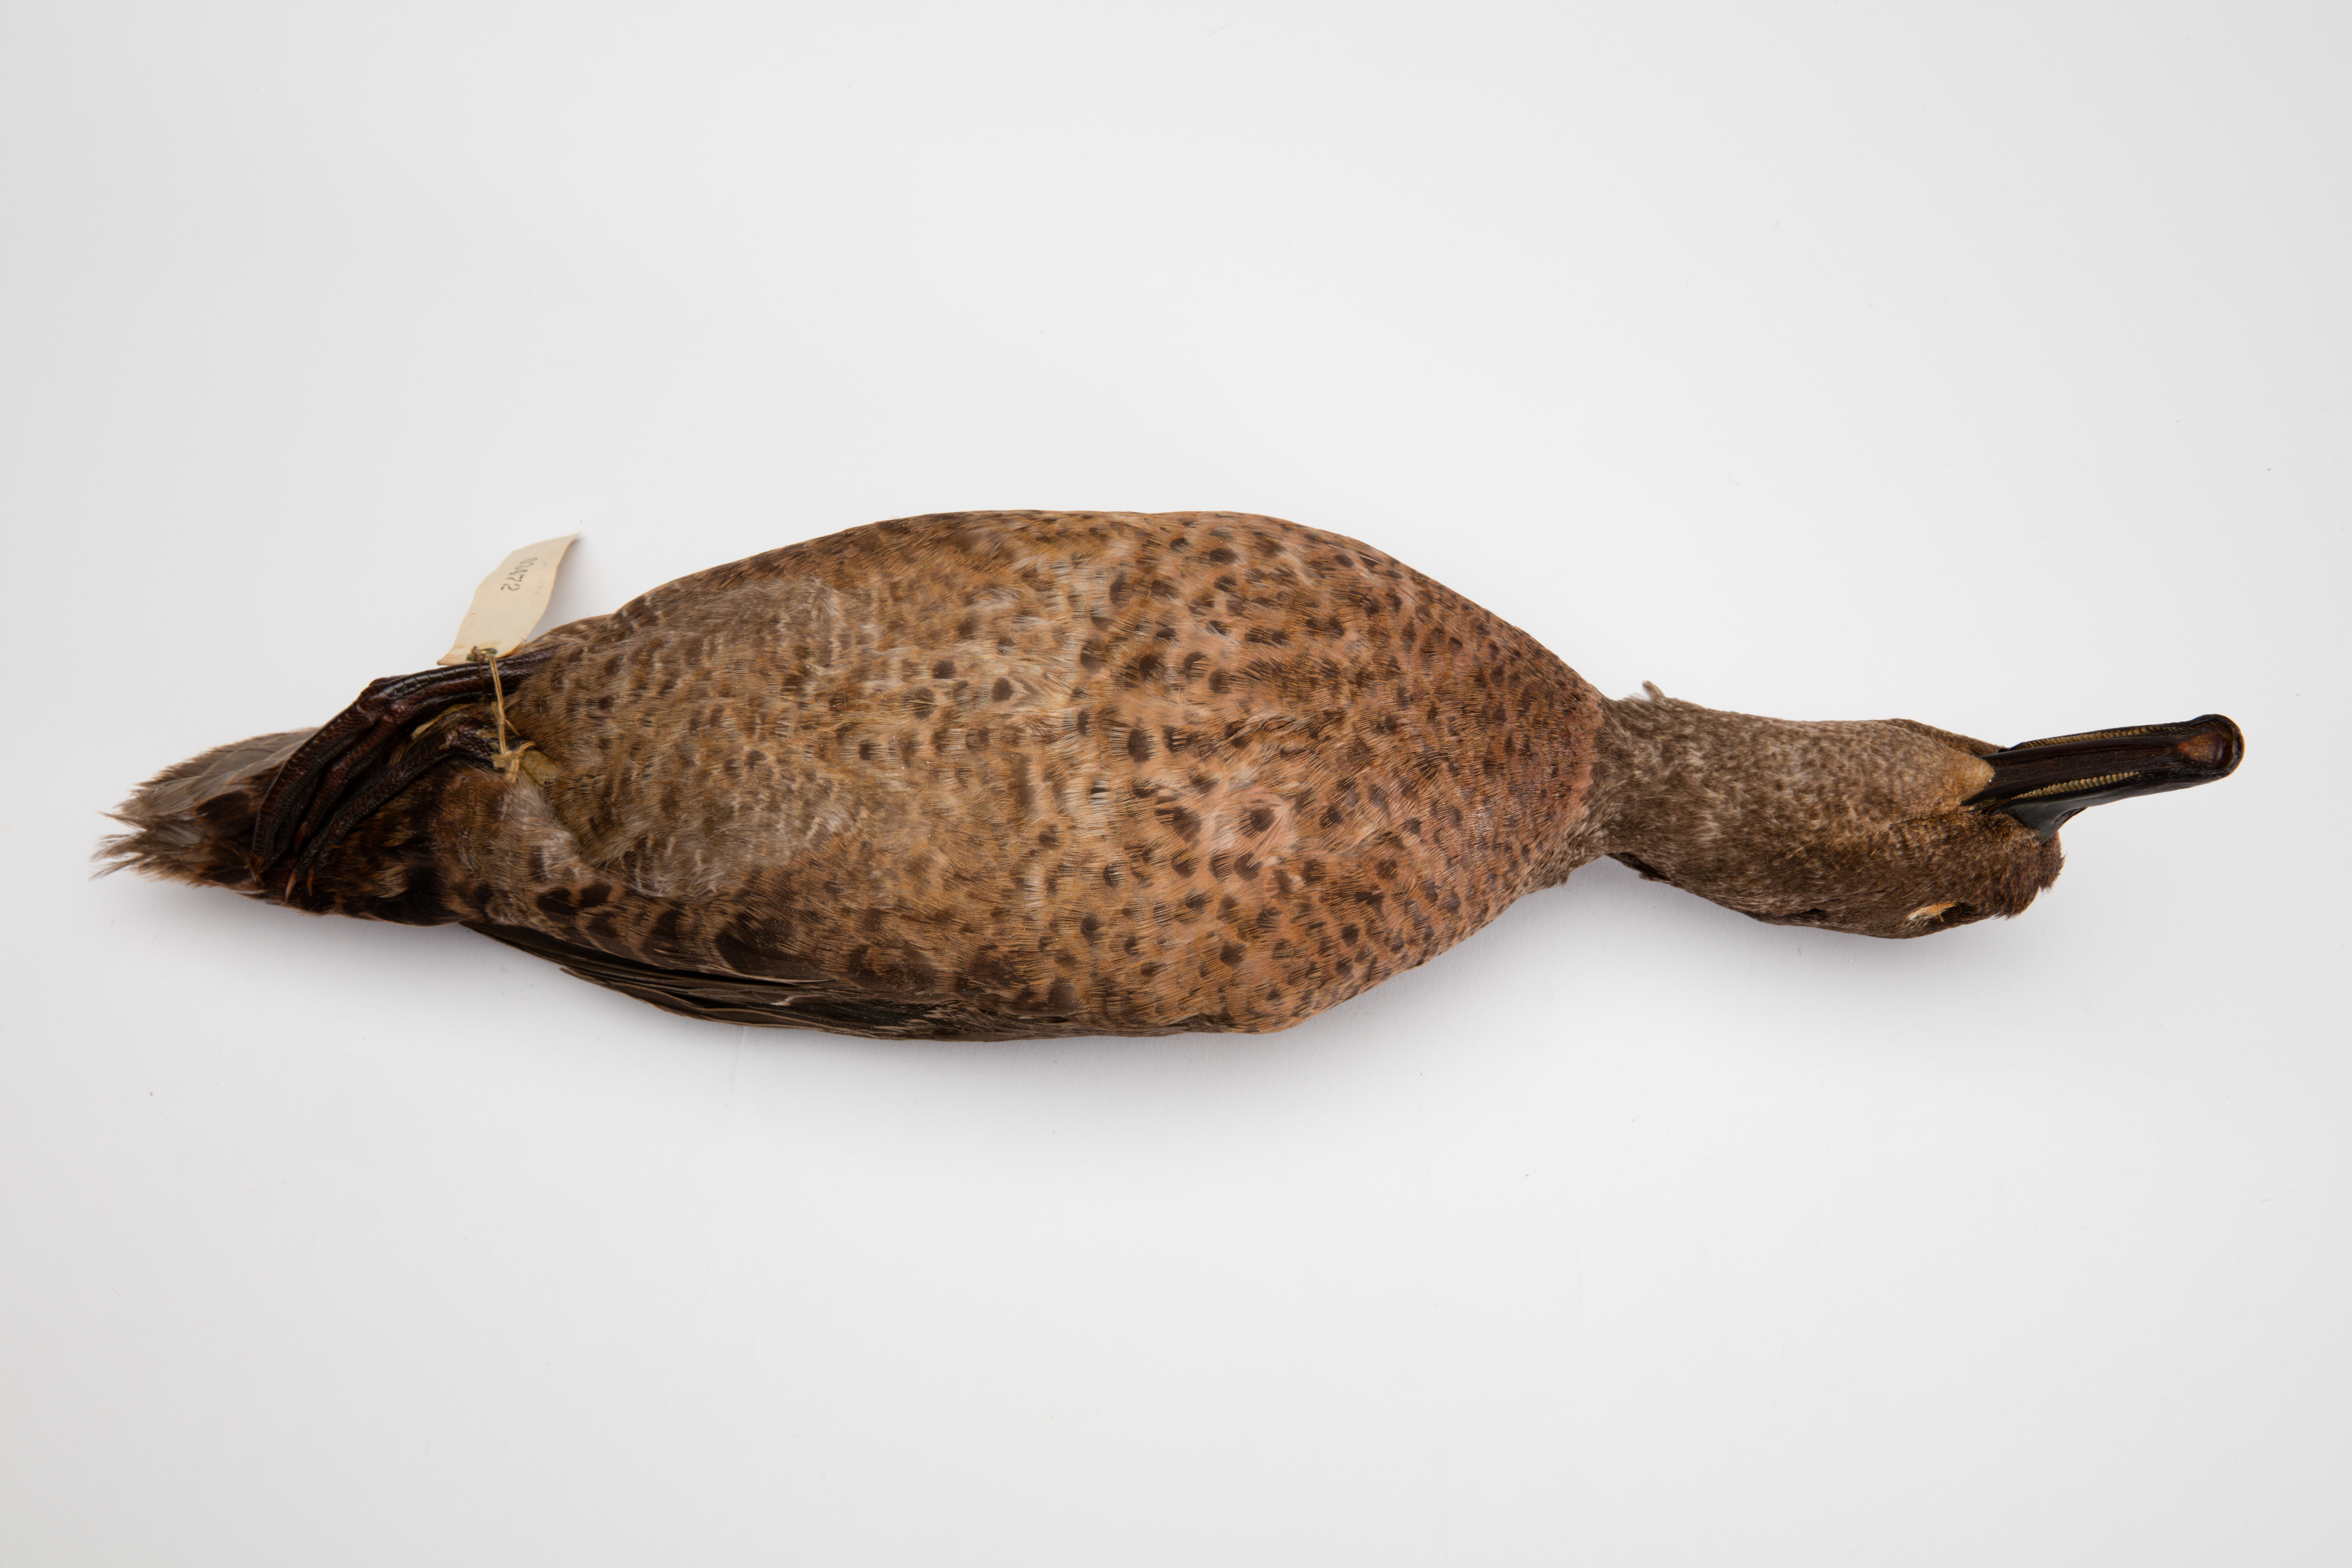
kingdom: Animalia
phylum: Chordata
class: Aves
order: Anseriformes
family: Anatidae
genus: Anas
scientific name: Anas chlorotis
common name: Brown teal
